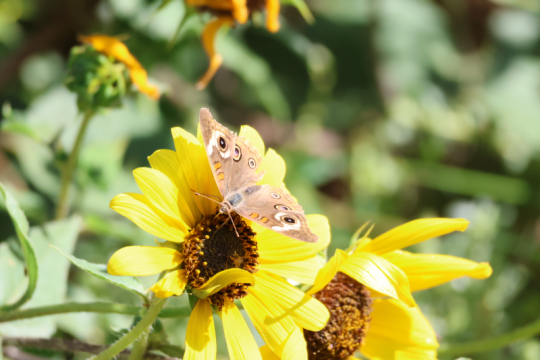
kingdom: Animalia
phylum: Arthropoda
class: Insecta
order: Lepidoptera
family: Nymphalidae
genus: Junonia
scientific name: Junonia coenia
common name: Common Buckeye
